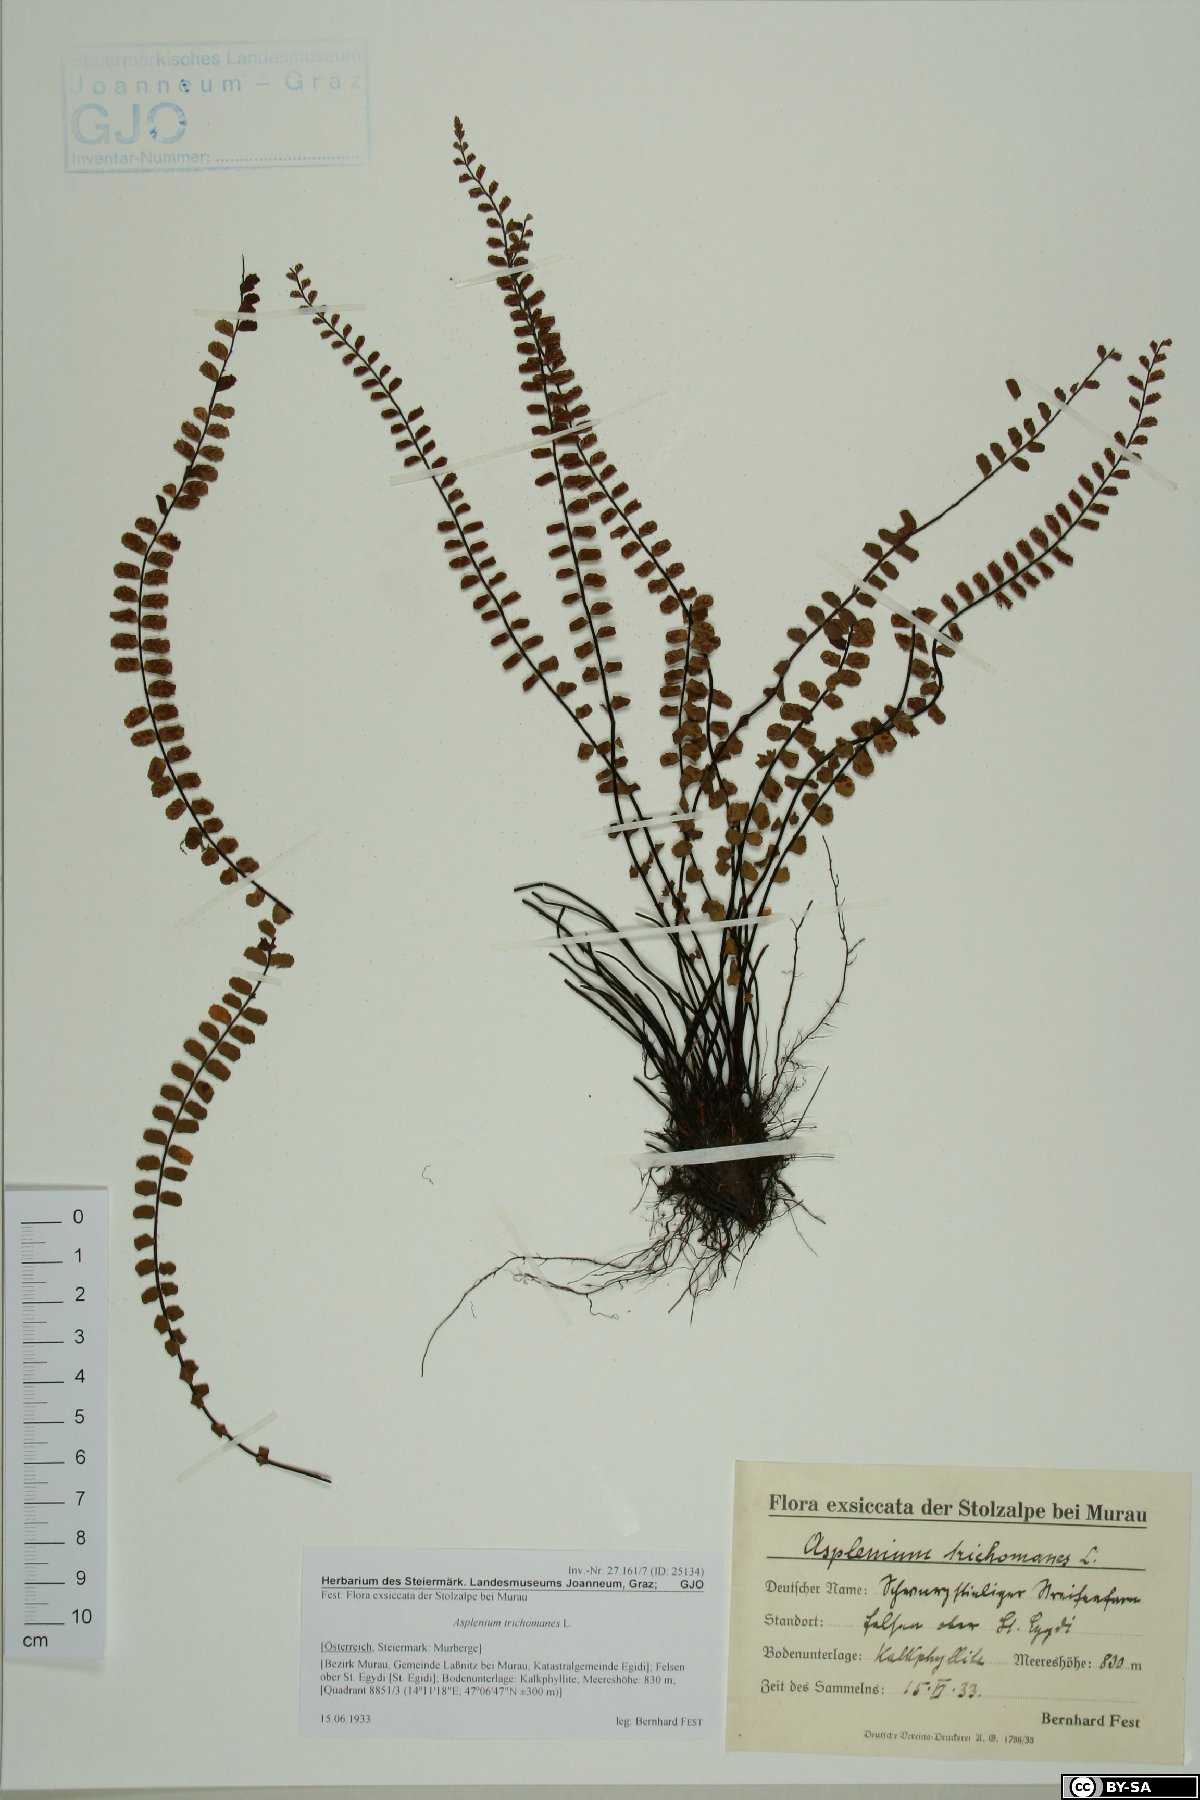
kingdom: Plantae
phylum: Tracheophyta
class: Polypodiopsida
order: Polypodiales
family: Aspleniaceae
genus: Asplenium
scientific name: Asplenium trichomanes
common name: Maidenhair spleenwort
